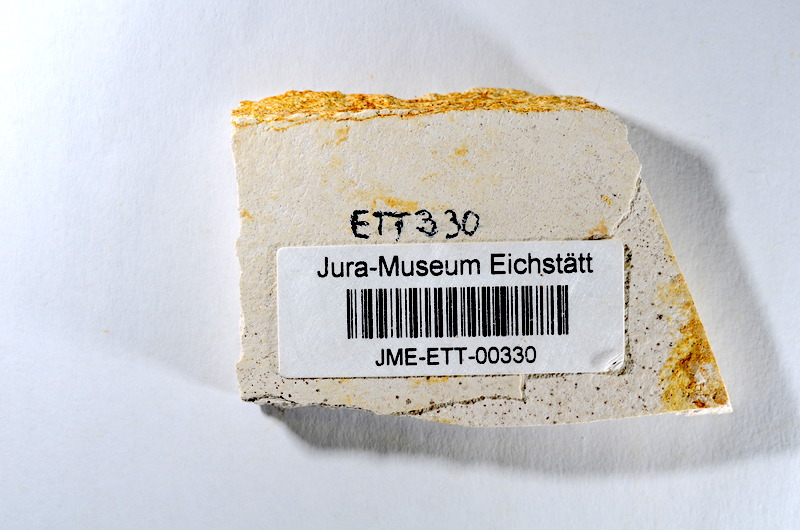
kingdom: Animalia
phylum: Chordata
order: Salmoniformes
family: Orthogonikleithridae
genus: Orthogonikleithrus
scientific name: Orthogonikleithrus hoelli
